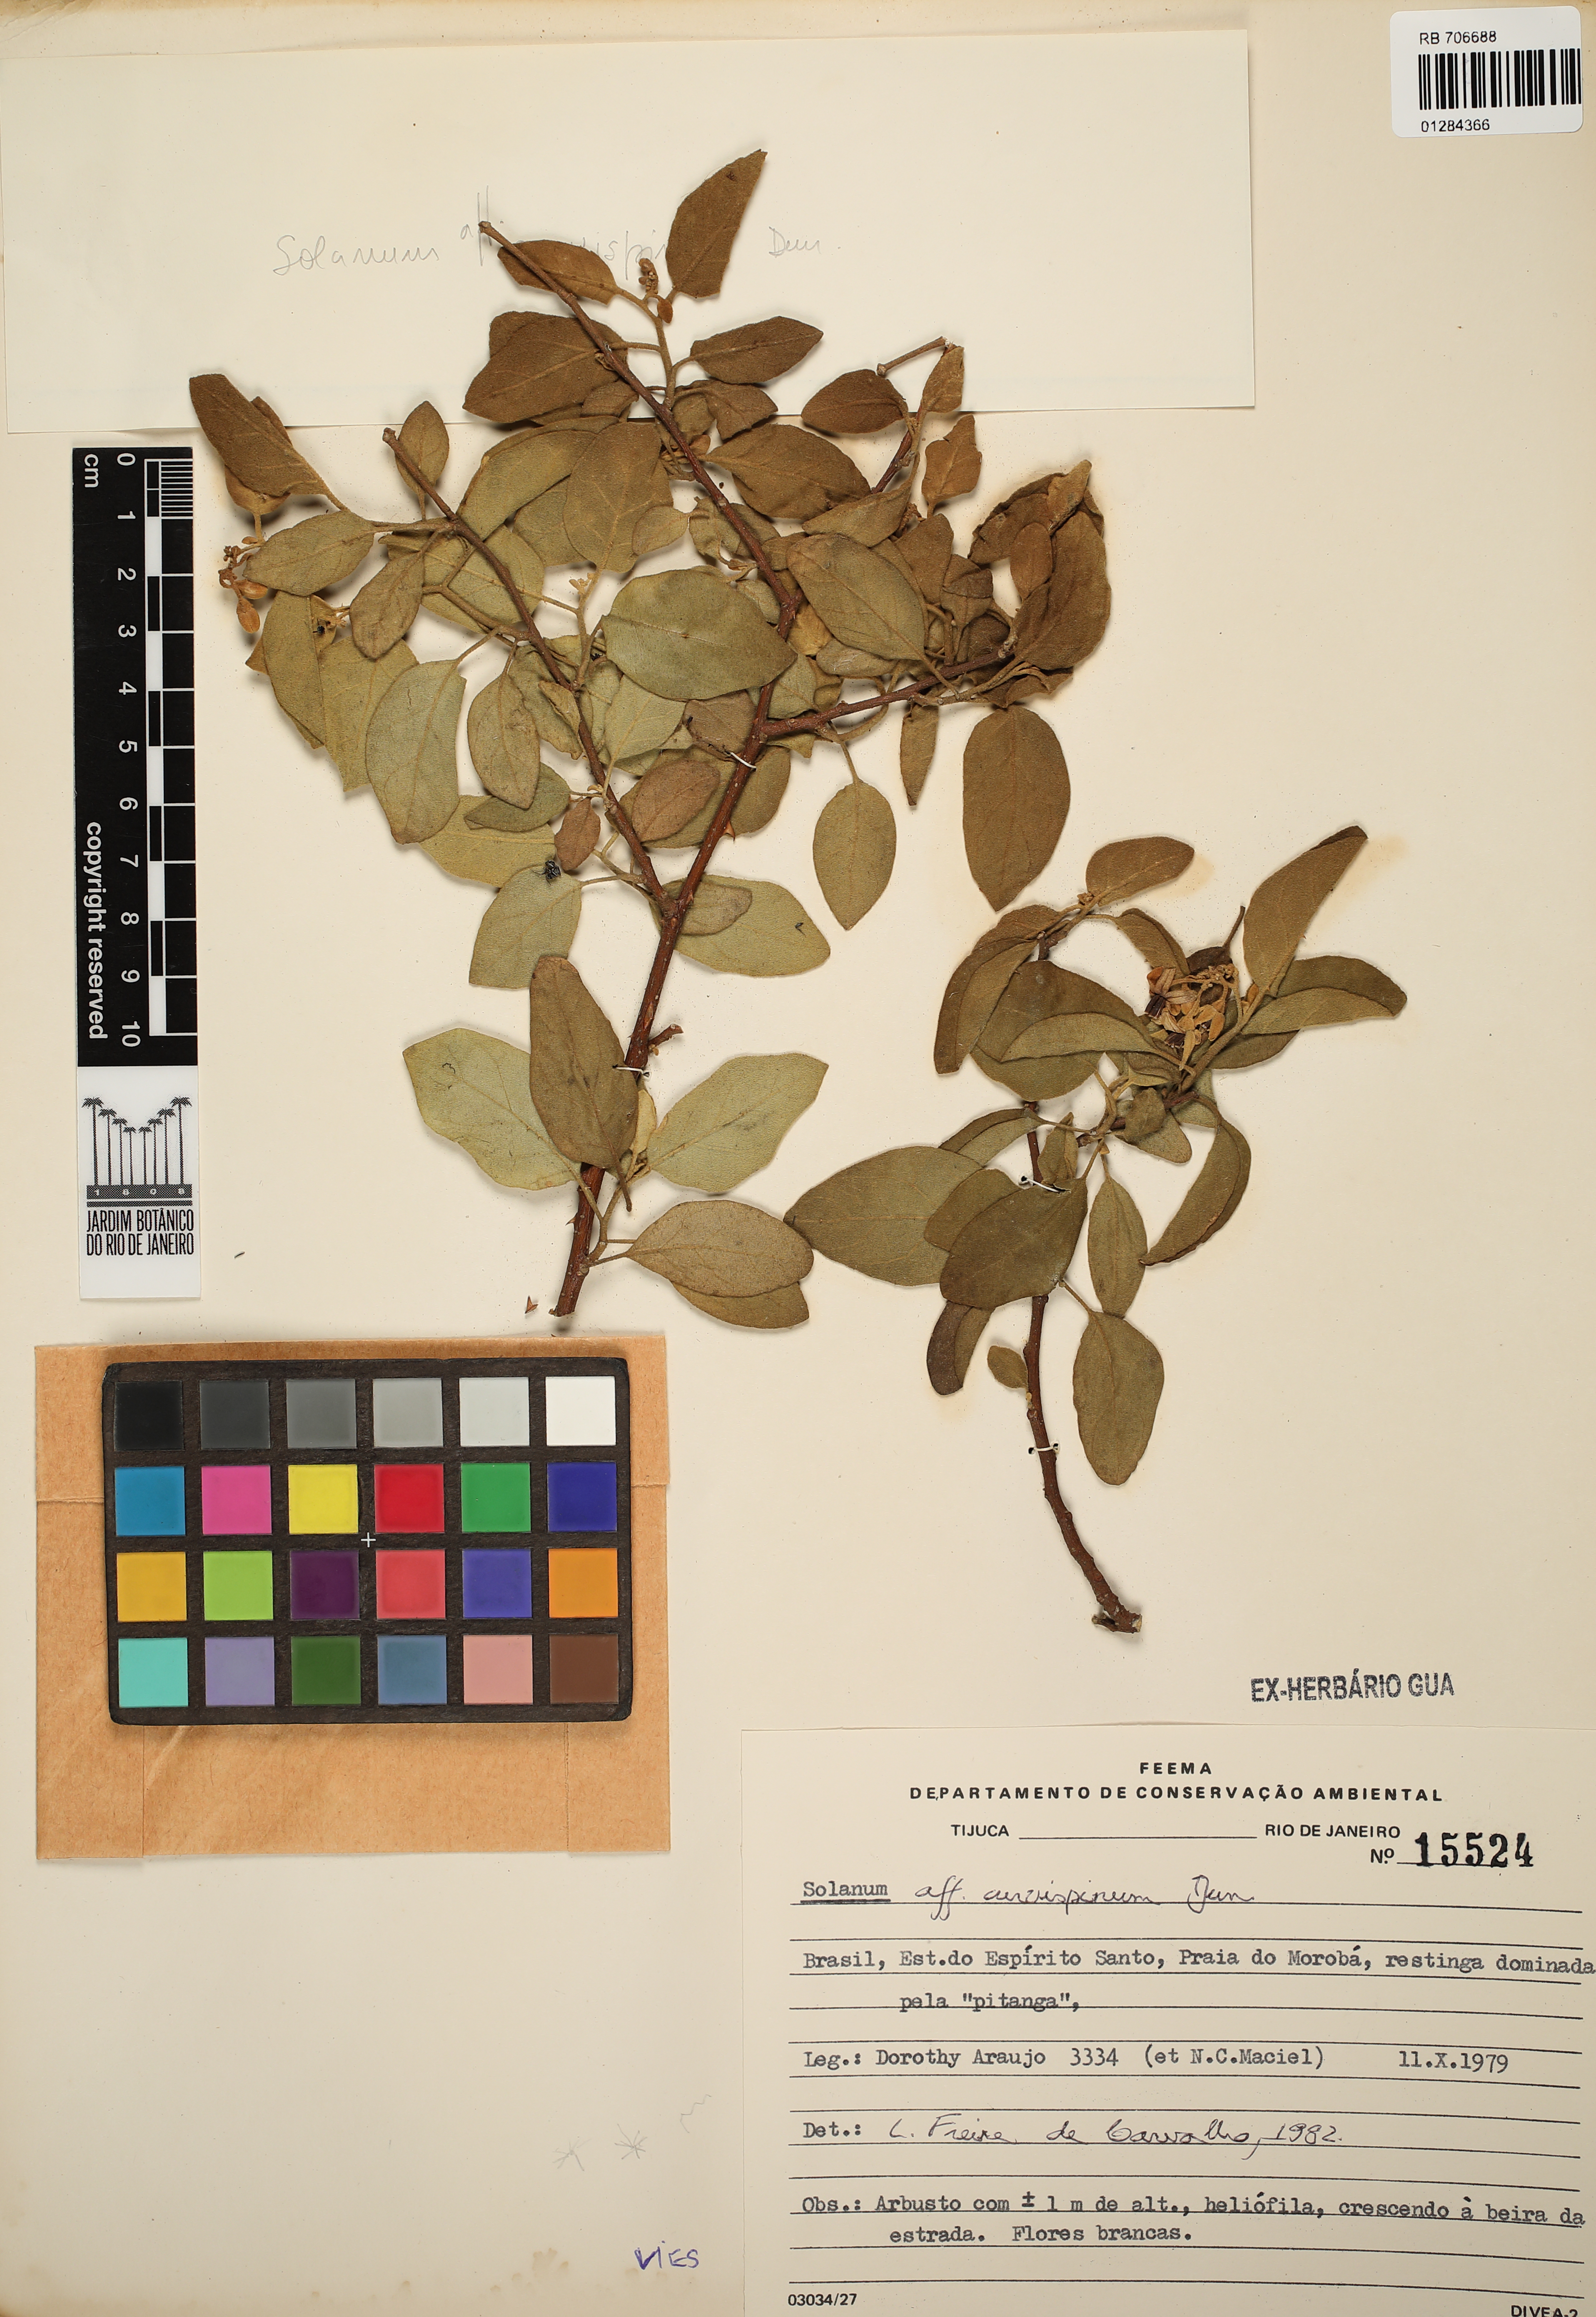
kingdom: Plantae
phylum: Tracheophyta
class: Magnoliopsida
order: Solanales
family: Solanaceae
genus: Solanum
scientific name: Solanum jussiaei
